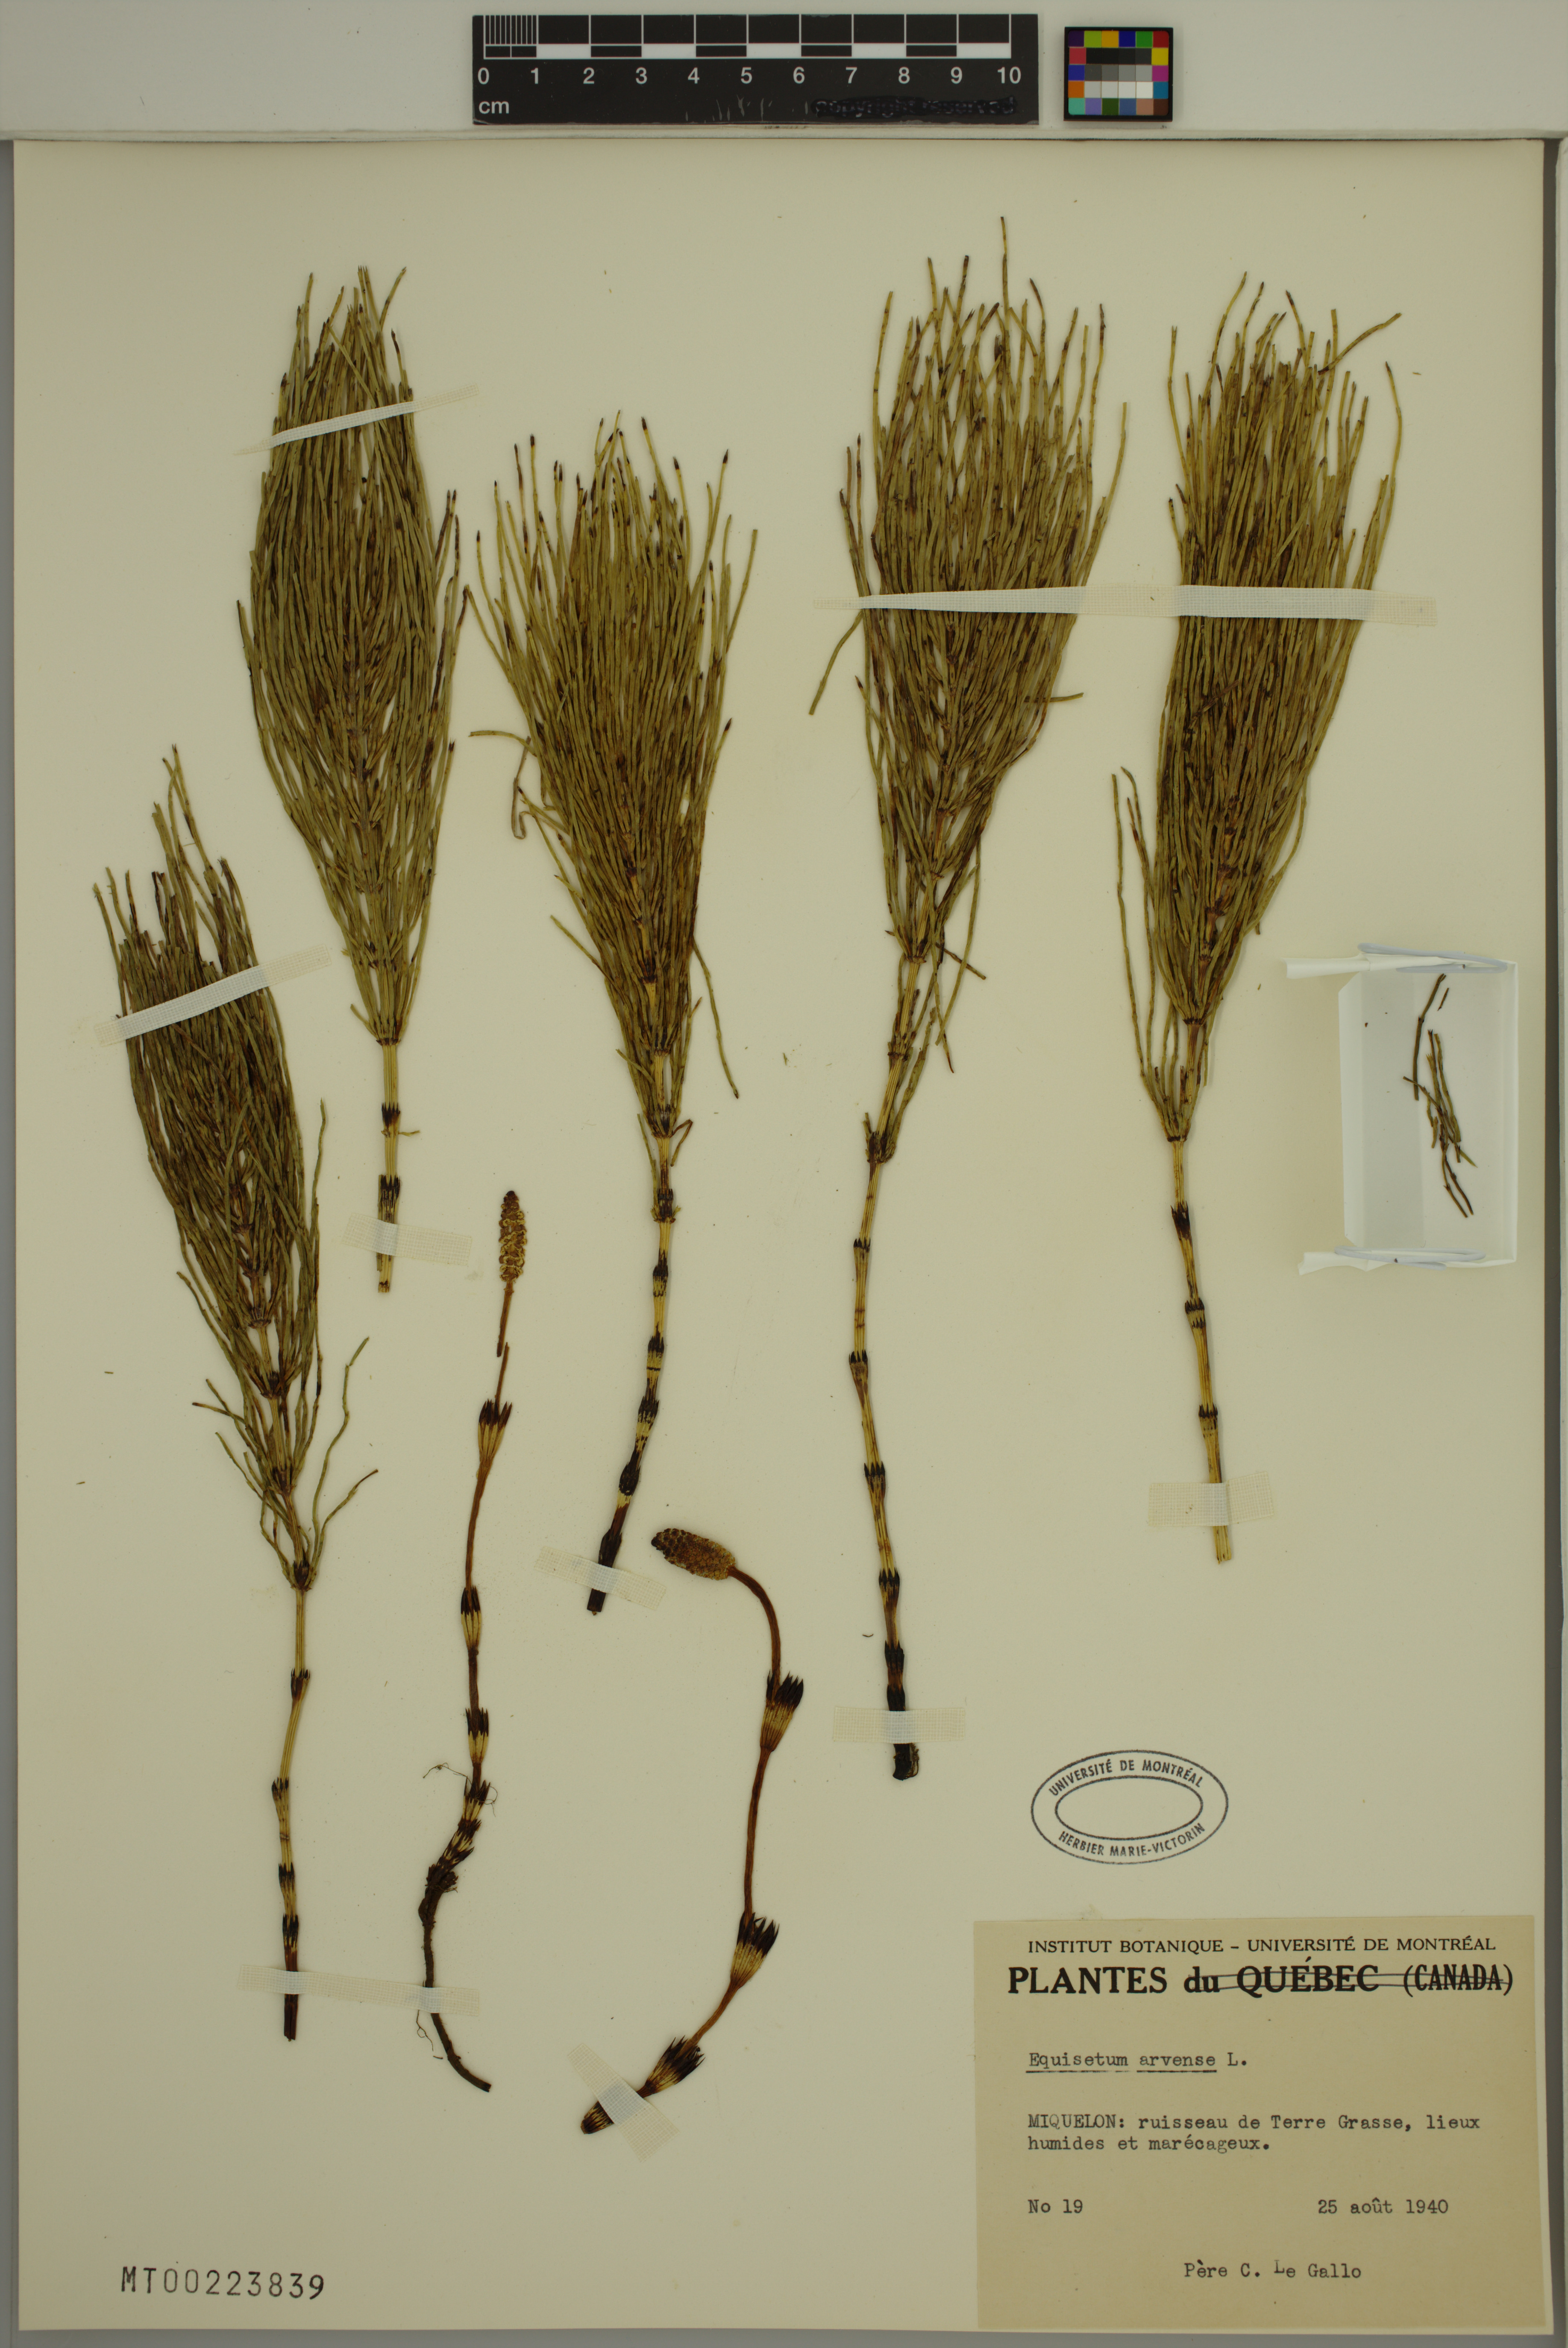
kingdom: Plantae
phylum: Tracheophyta
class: Polypodiopsida
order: Equisetales
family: Equisetaceae
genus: Equisetum
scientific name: Equisetum arvense
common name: Field horsetail
